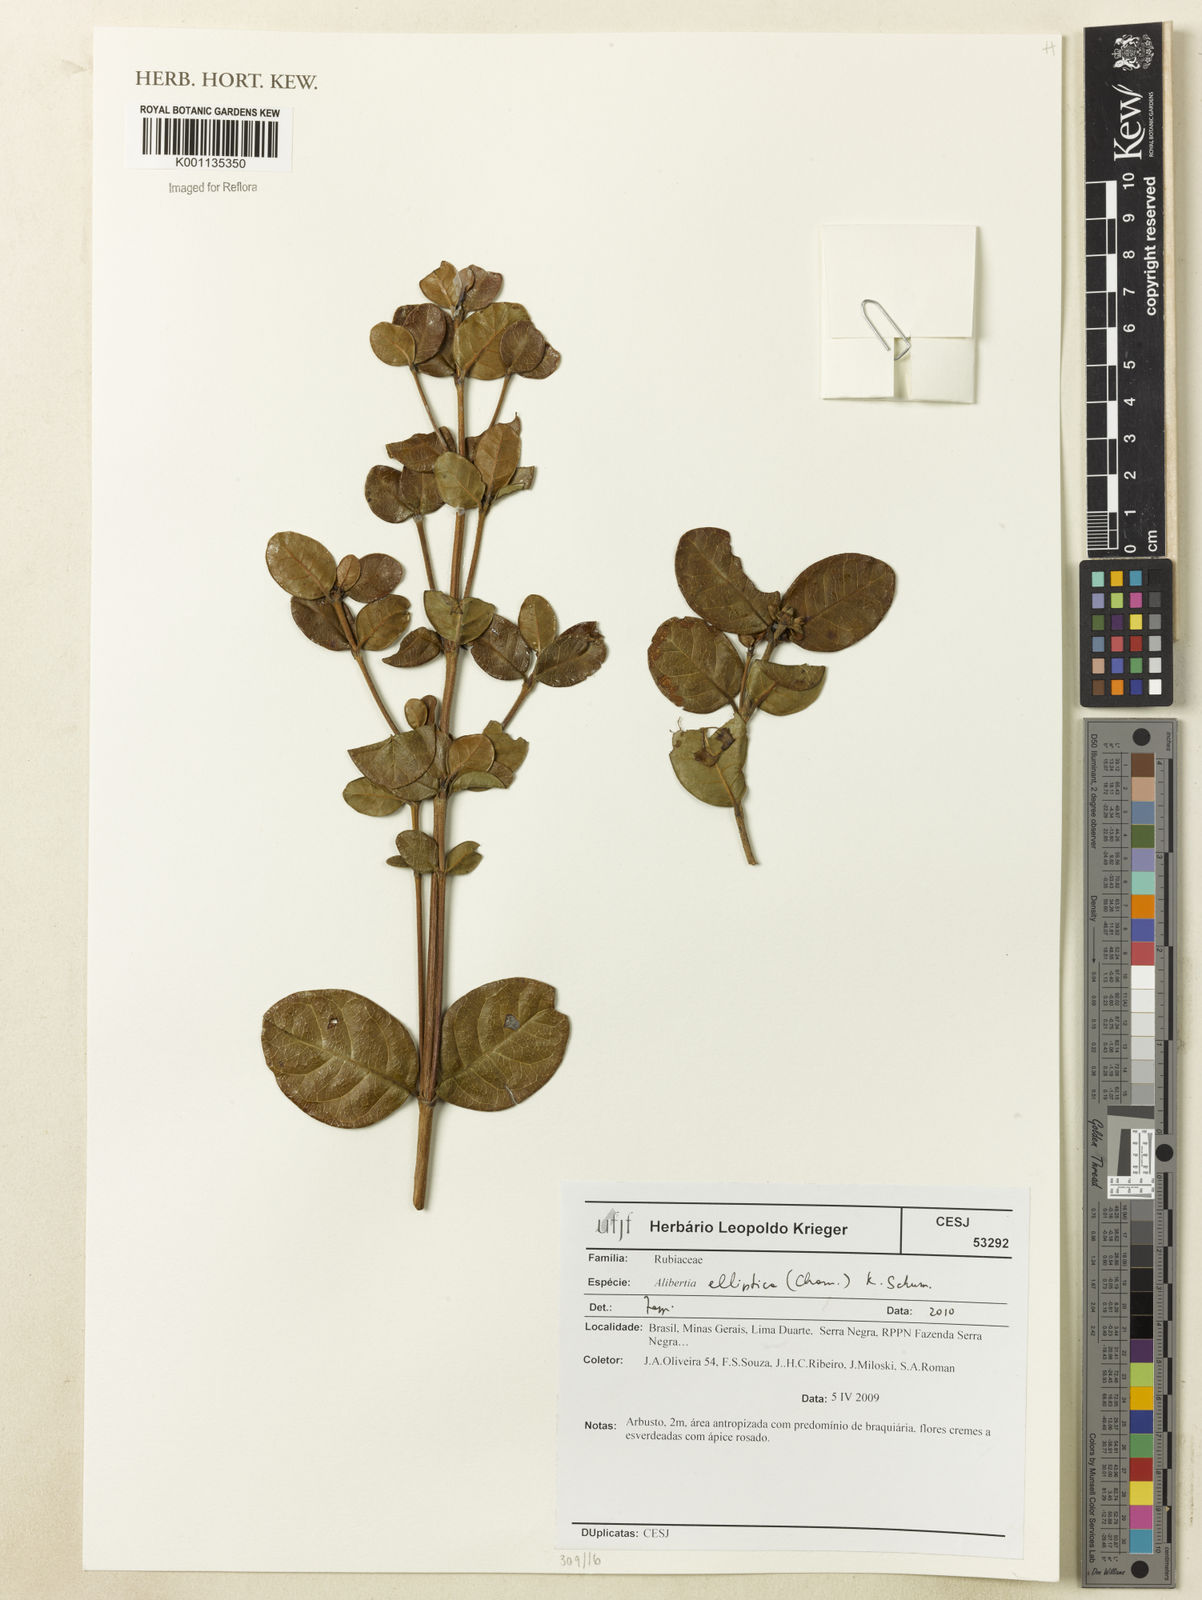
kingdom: Plantae
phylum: Tracheophyta
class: Magnoliopsida
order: Gentianales
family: Rubiaceae
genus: Cordiera
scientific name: Cordiera elliptica
